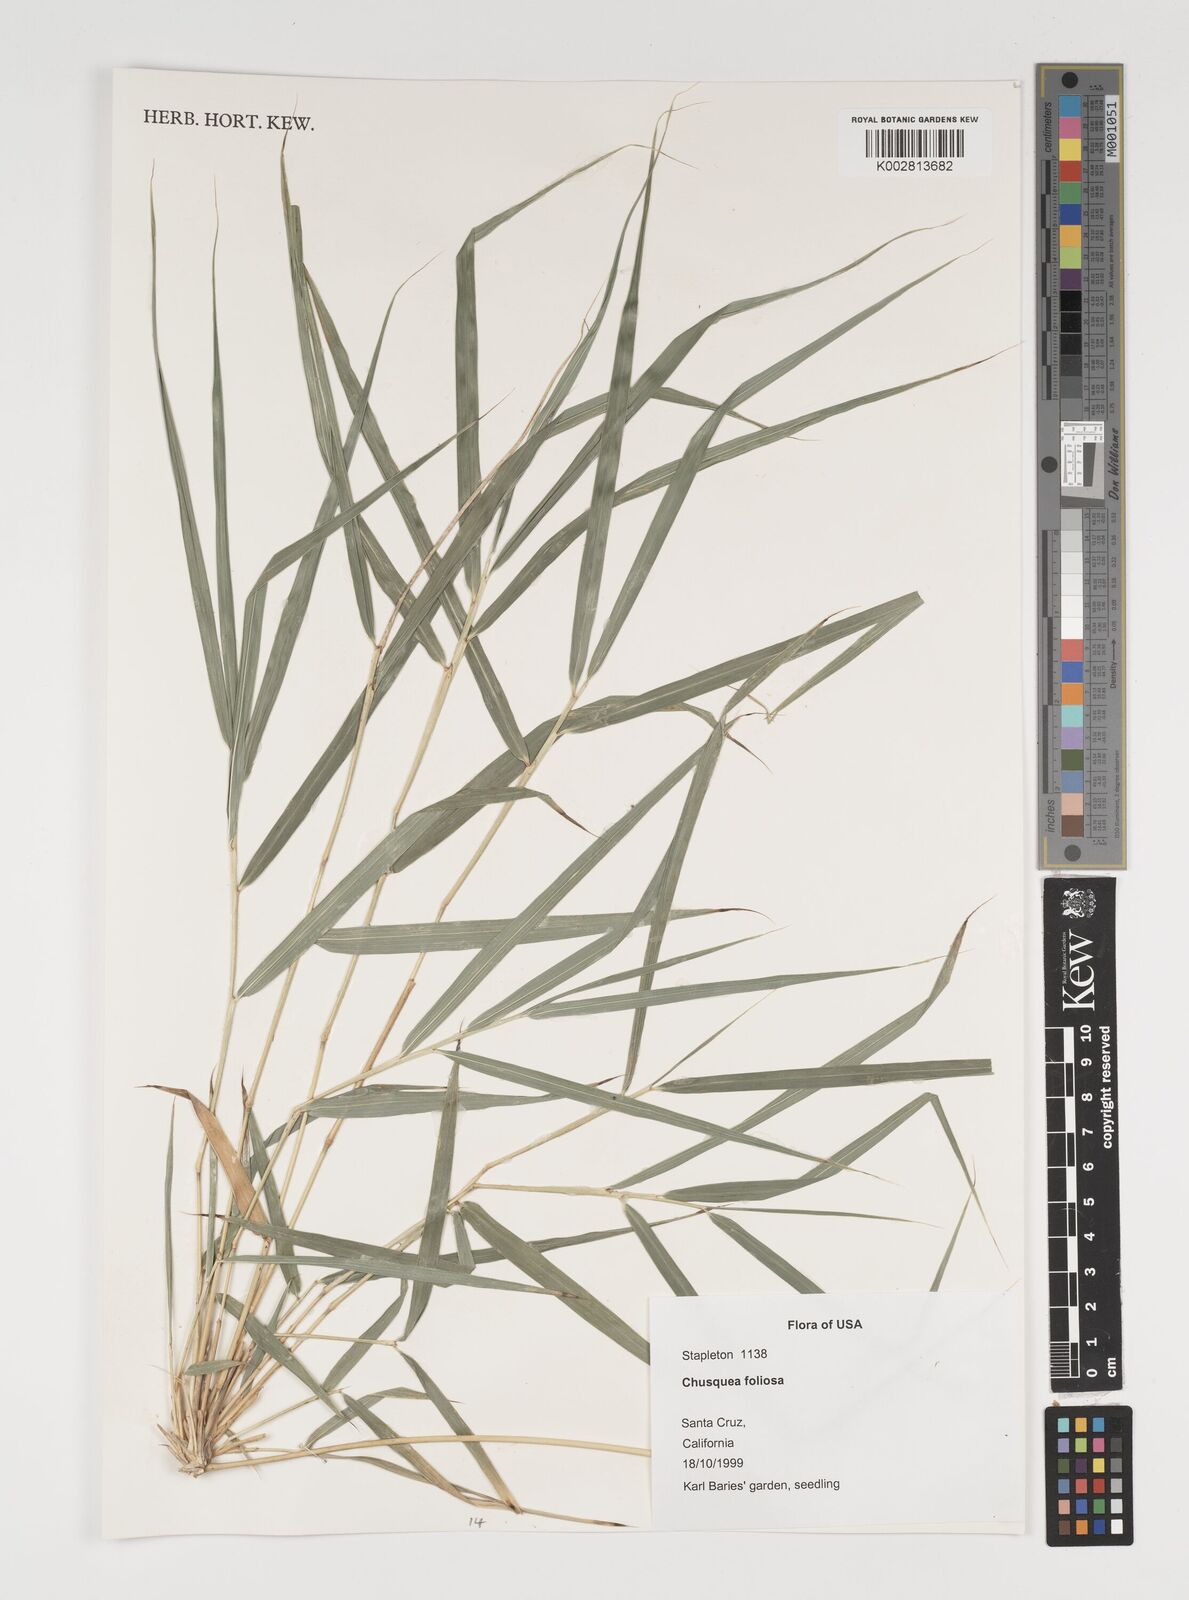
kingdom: Plantae
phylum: Tracheophyta
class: Liliopsida
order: Poales
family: Poaceae
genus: Chusquea
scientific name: Chusquea foliosa
